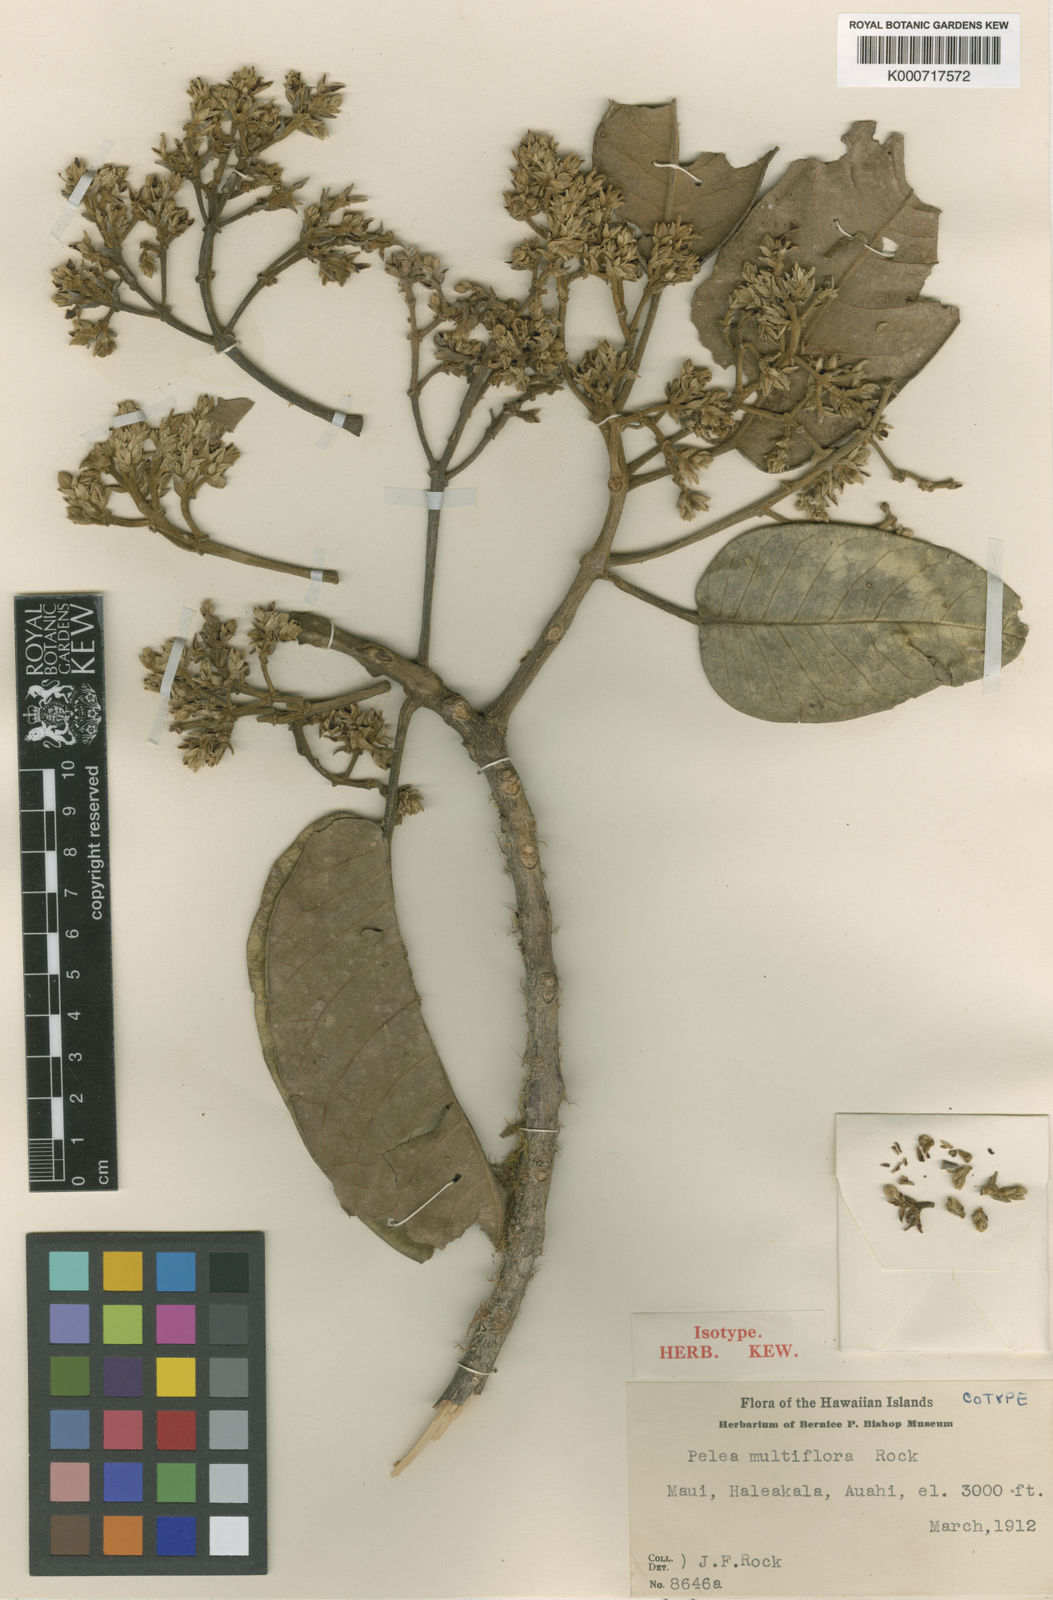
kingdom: Plantae
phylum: Tracheophyta
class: Magnoliopsida
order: Sapindales
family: Rutaceae
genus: Melicope
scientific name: Melicope knudsenii
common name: Knudsen's melicope
